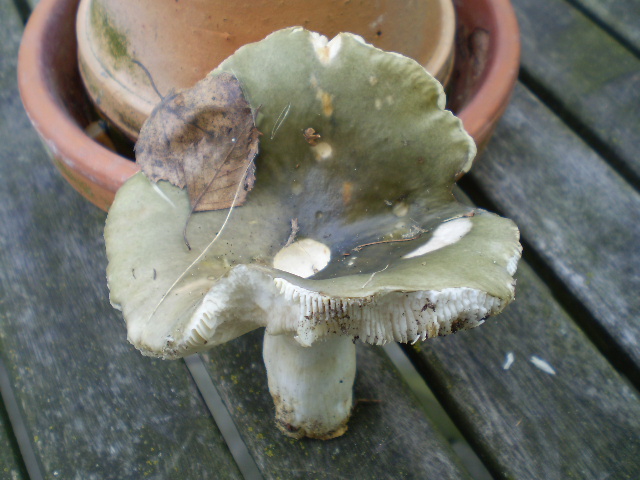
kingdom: Fungi
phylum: Basidiomycota
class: Agaricomycetes
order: Russulales
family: Russulaceae
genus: Russula
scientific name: Russula aeruginea
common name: græsgrøn skørhat
